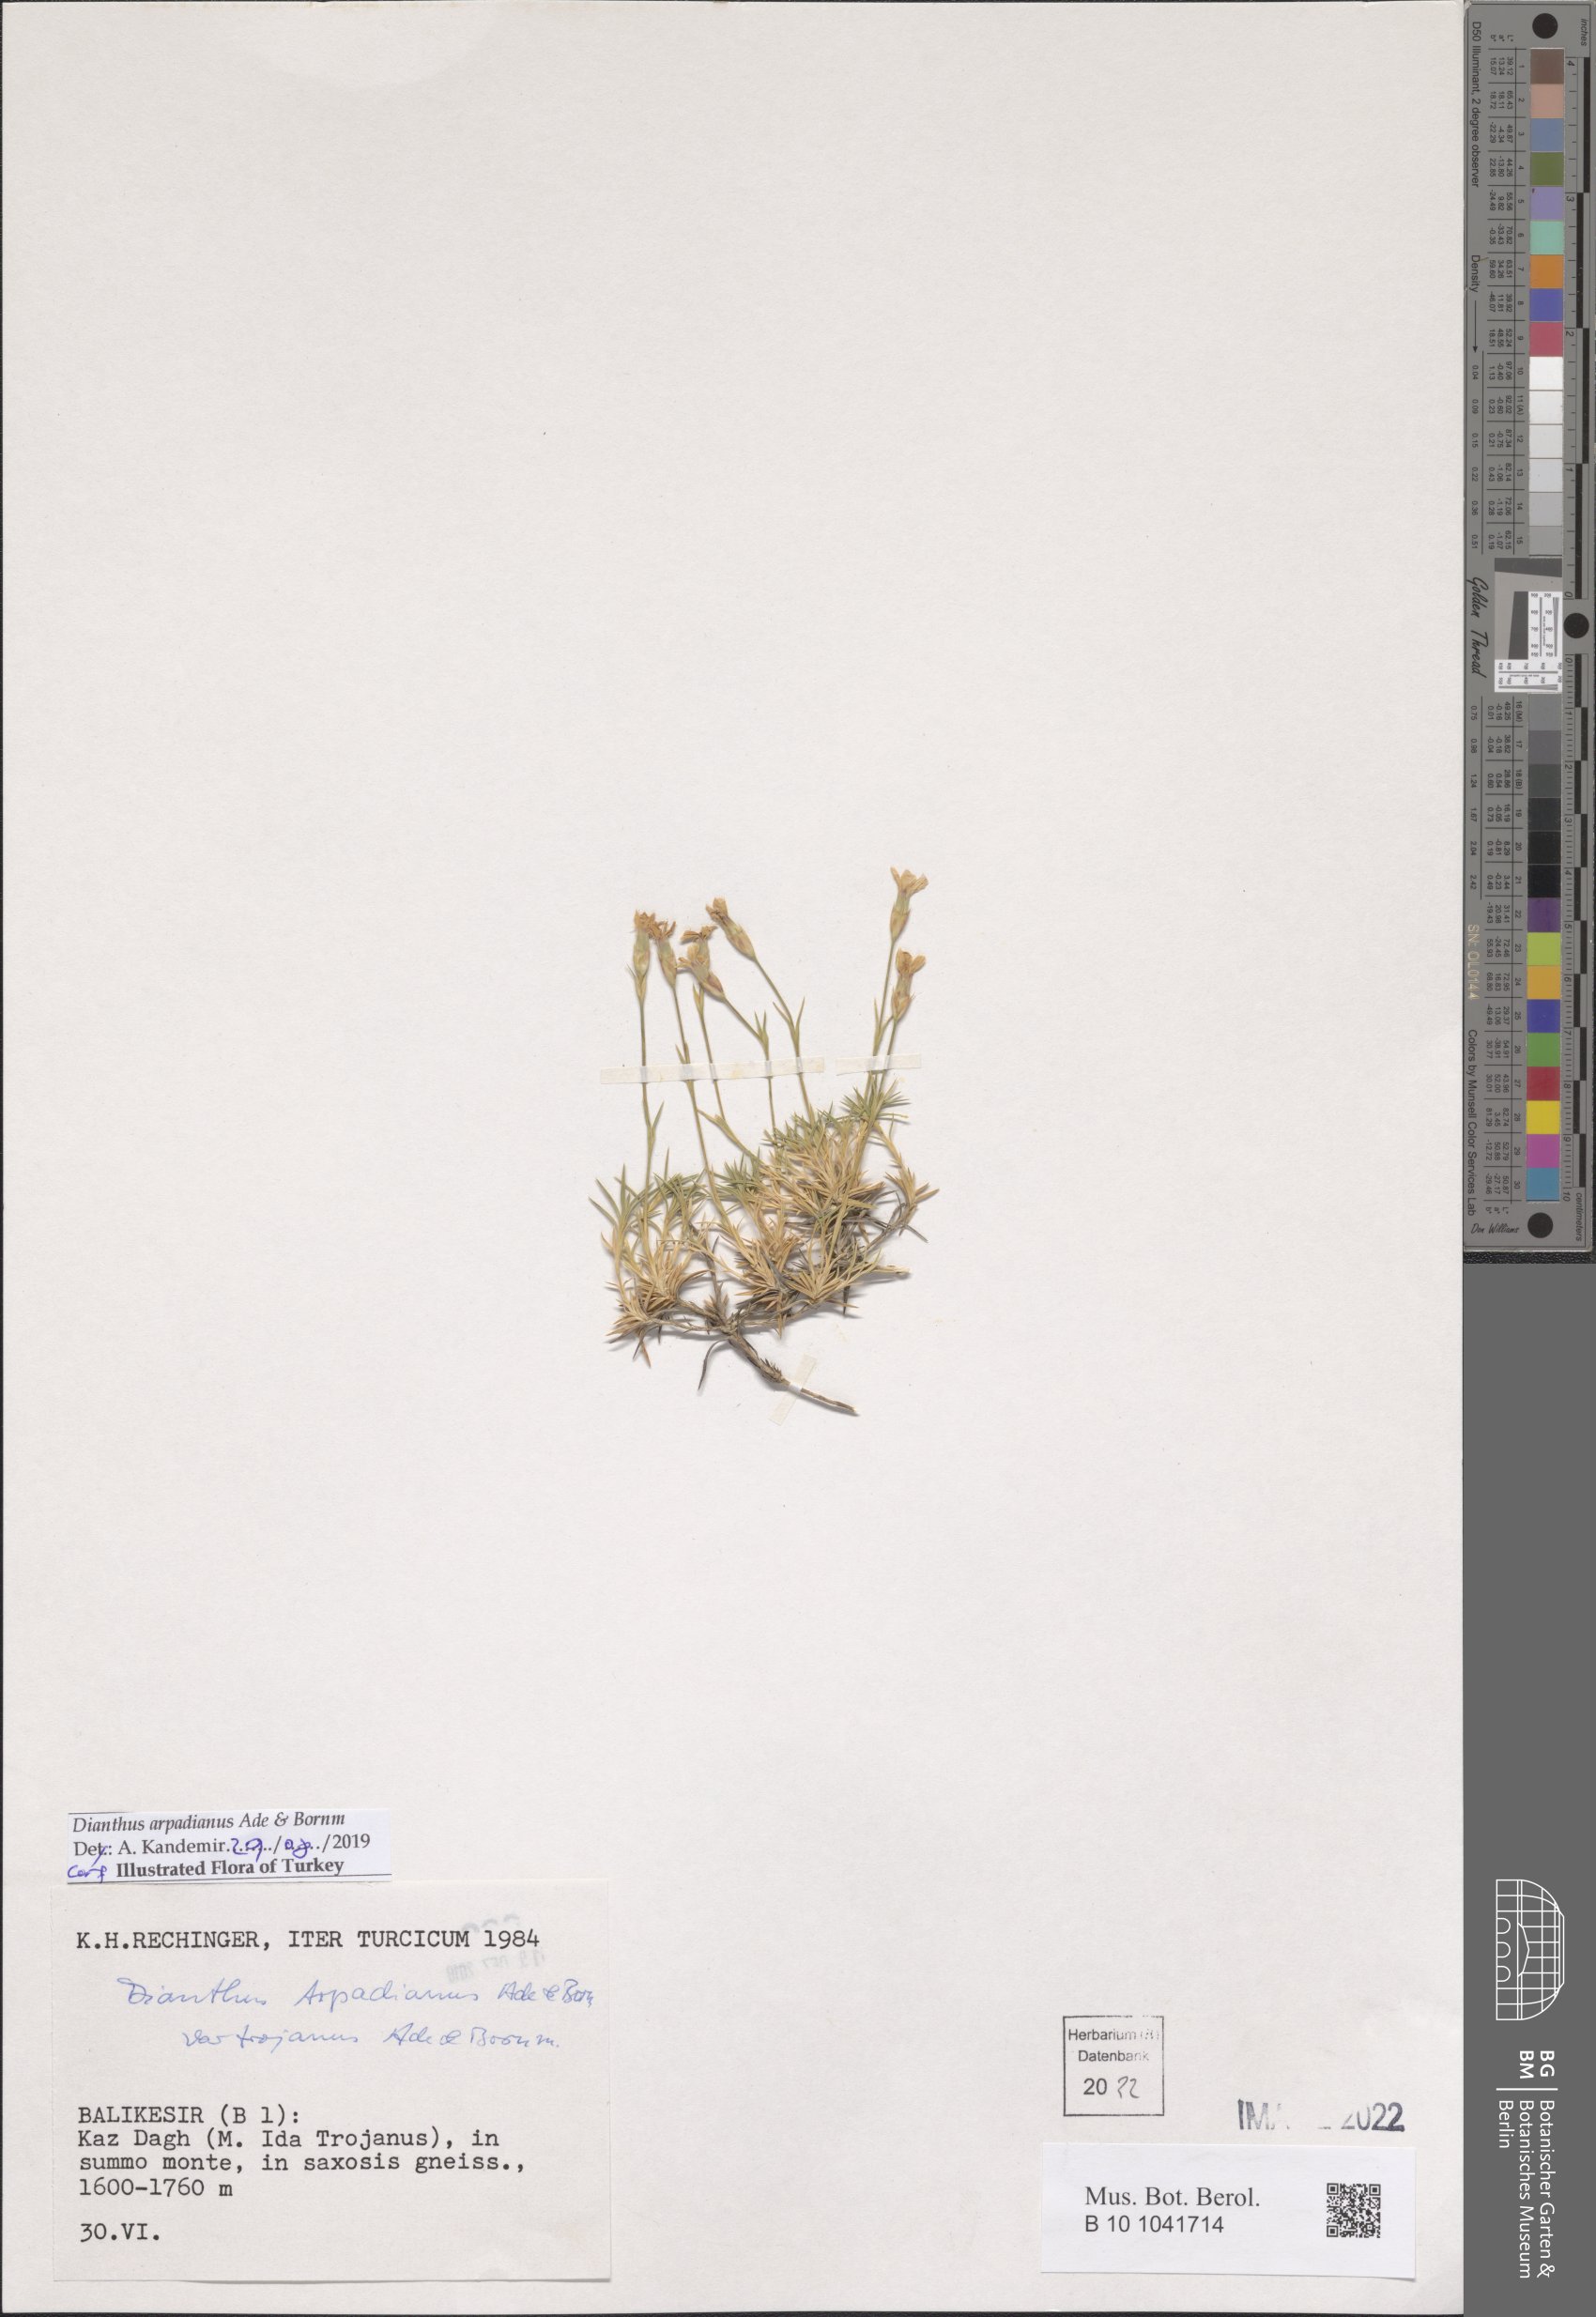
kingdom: Plantae
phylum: Tracheophyta
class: Magnoliopsida
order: Caryophyllales
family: Caryophyllaceae
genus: Dianthus
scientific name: Dianthus arpadianus
